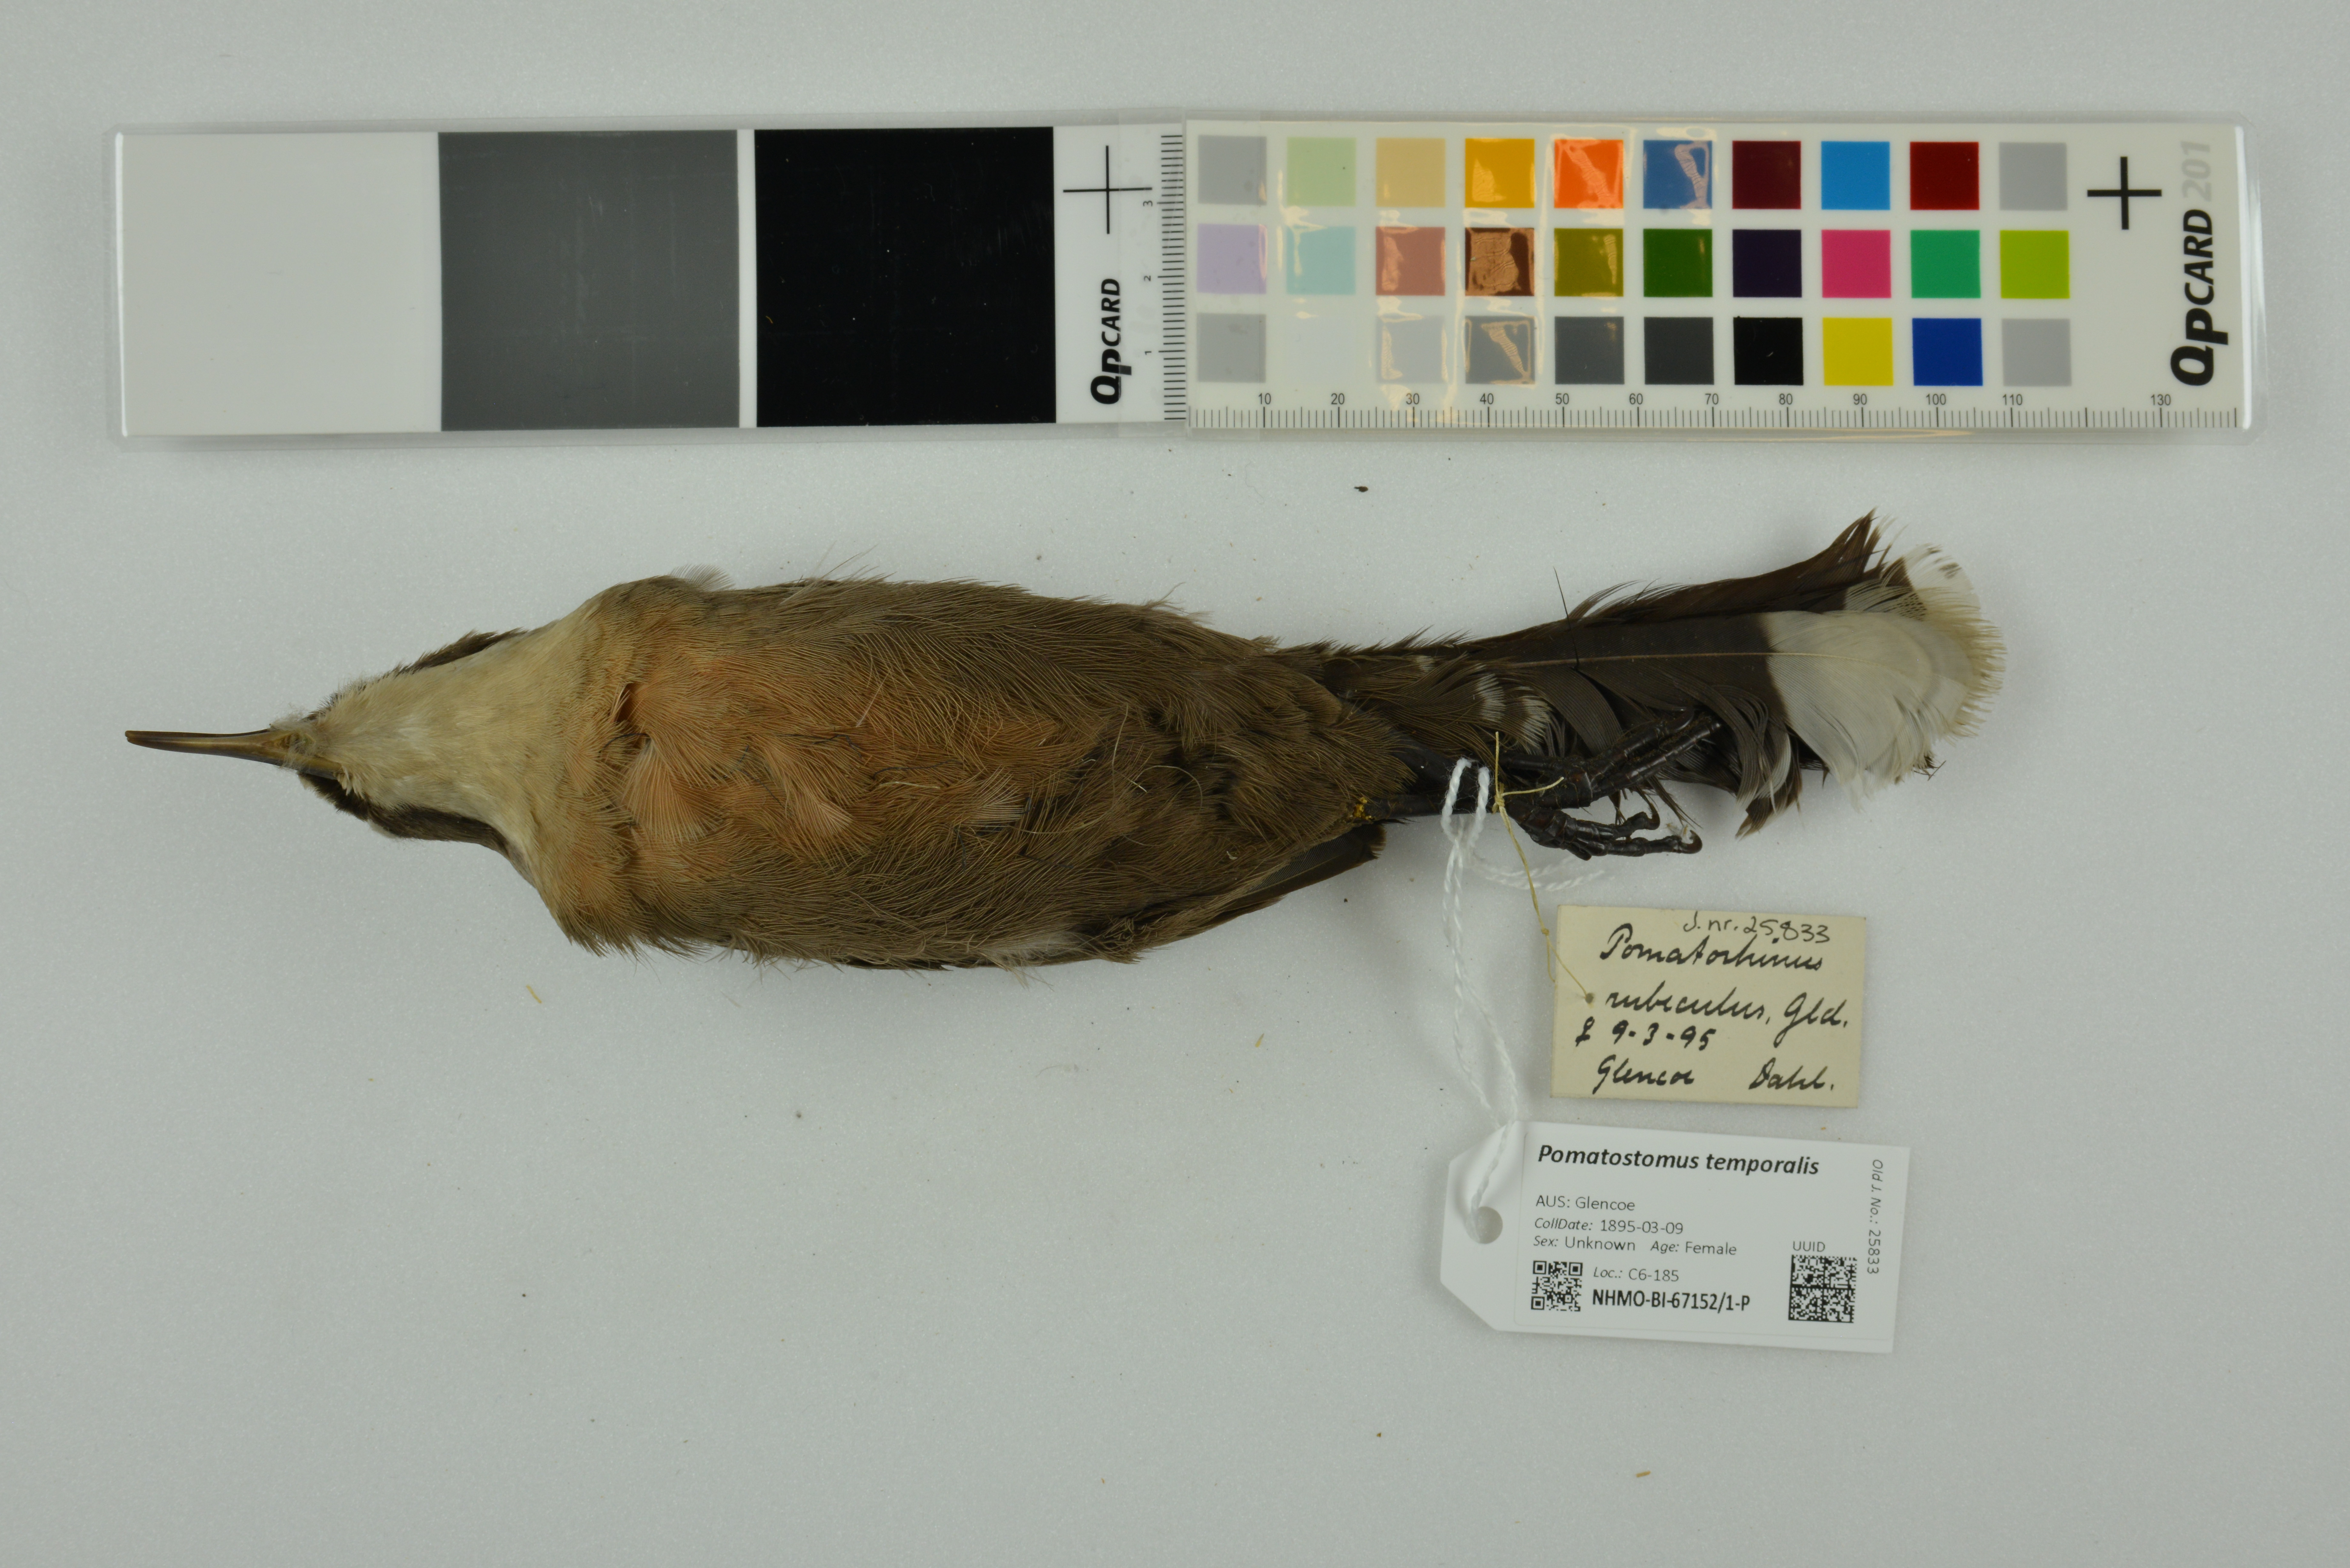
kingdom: Animalia
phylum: Chordata
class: Aves
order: Passeriformes
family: Pomatostomidae
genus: Pomatostomus
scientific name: Pomatostomus temporalis
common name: Grey-crowned babbler
